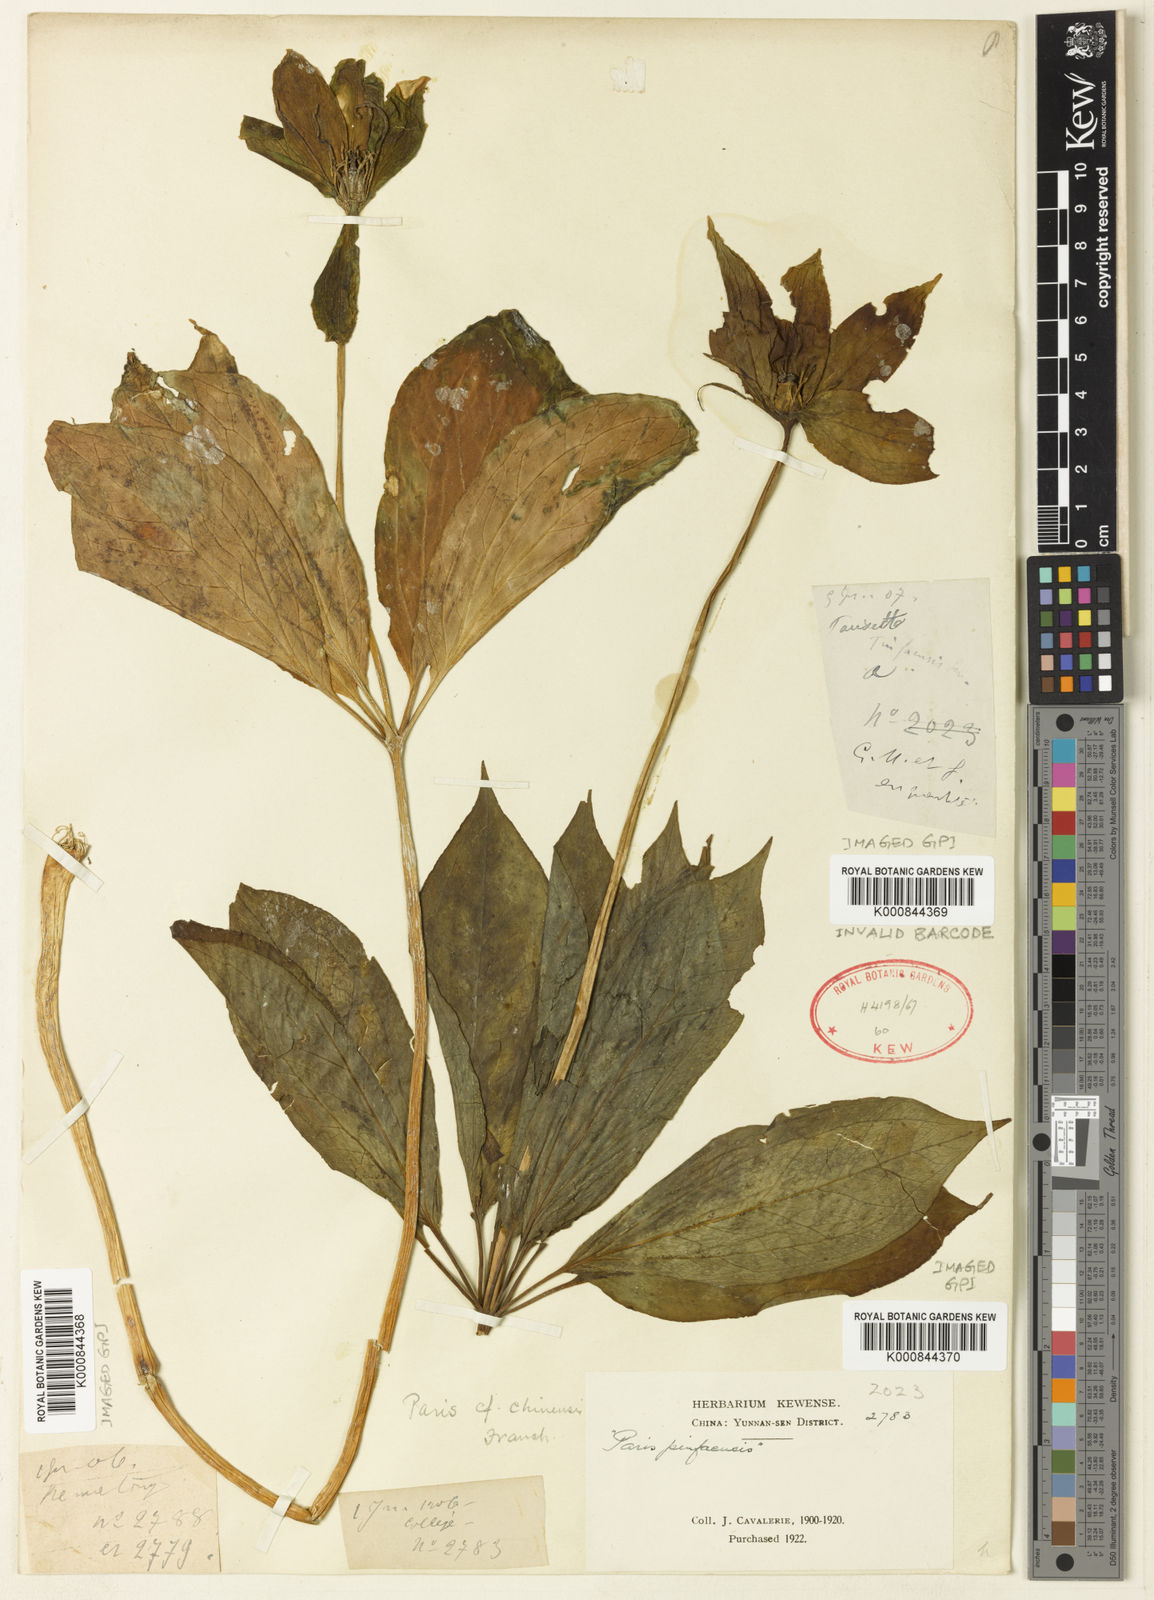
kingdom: Plantae
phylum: Tracheophyta
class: Liliopsida
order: Liliales
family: Melanthiaceae
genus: Paris
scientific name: Paris chinensis
